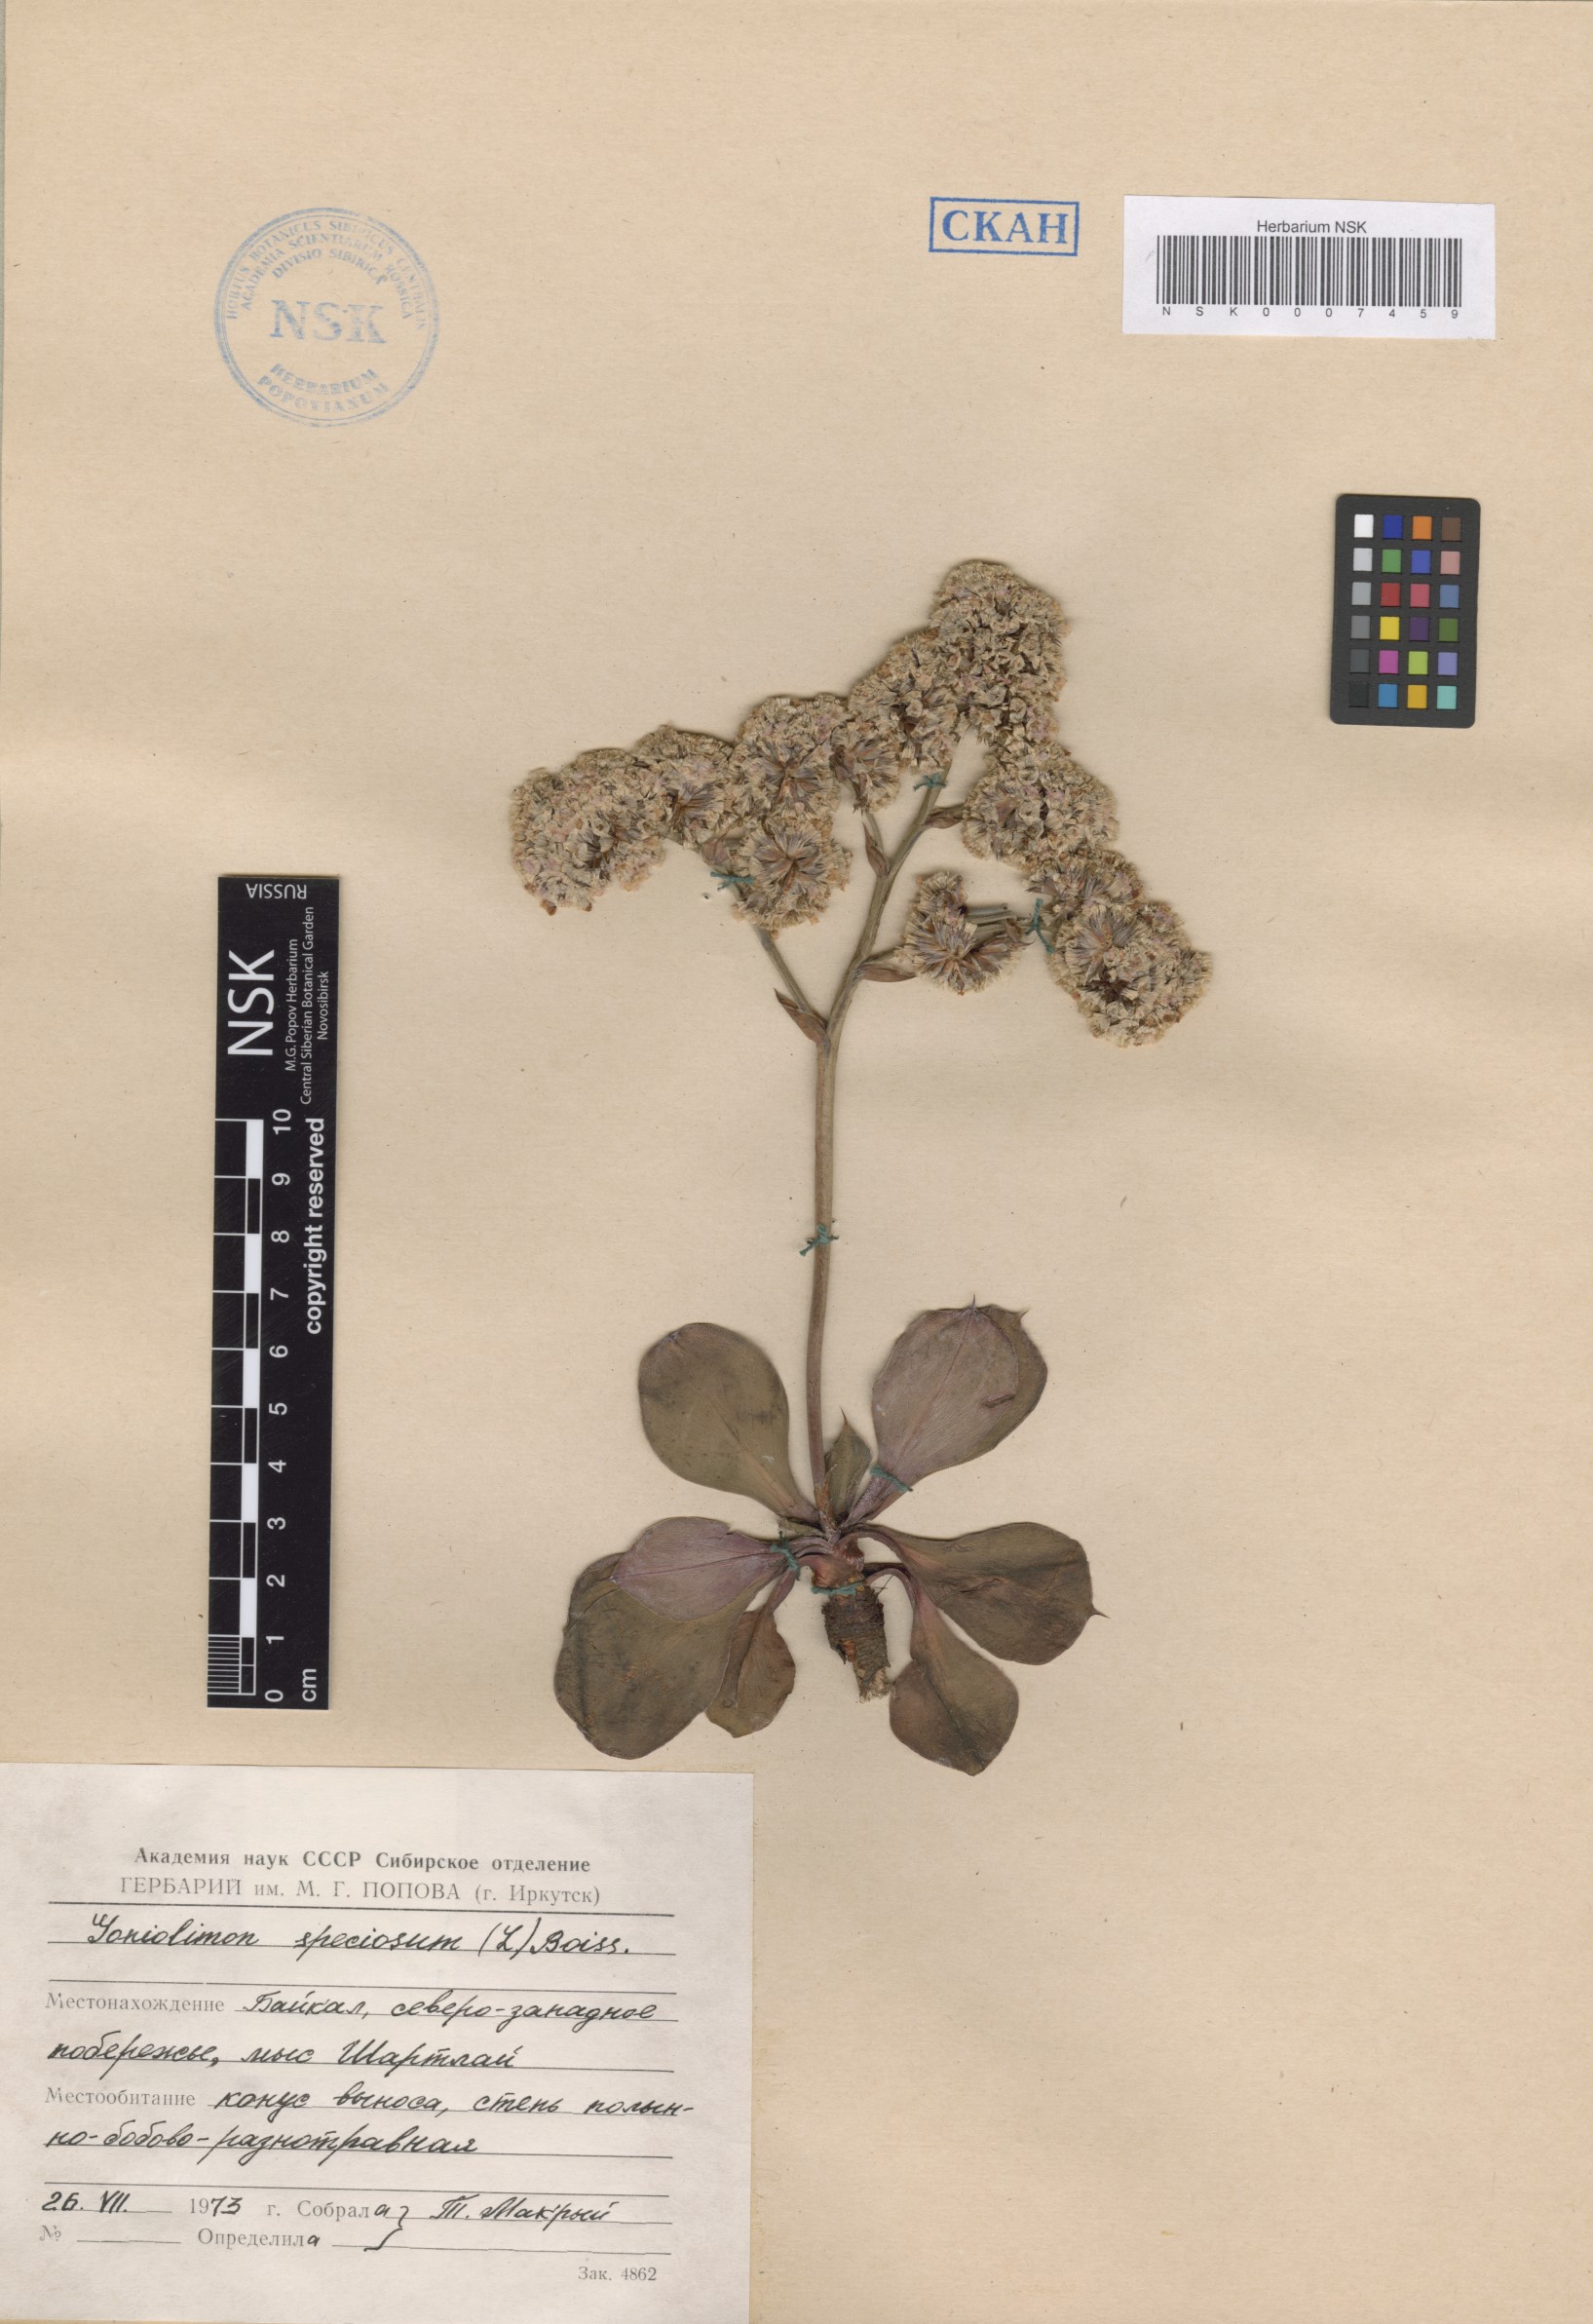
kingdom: Plantae
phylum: Tracheophyta
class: Magnoliopsida
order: Caryophyllales
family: Plumbaginaceae
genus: Goniolimon
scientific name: Goniolimon speciosum
